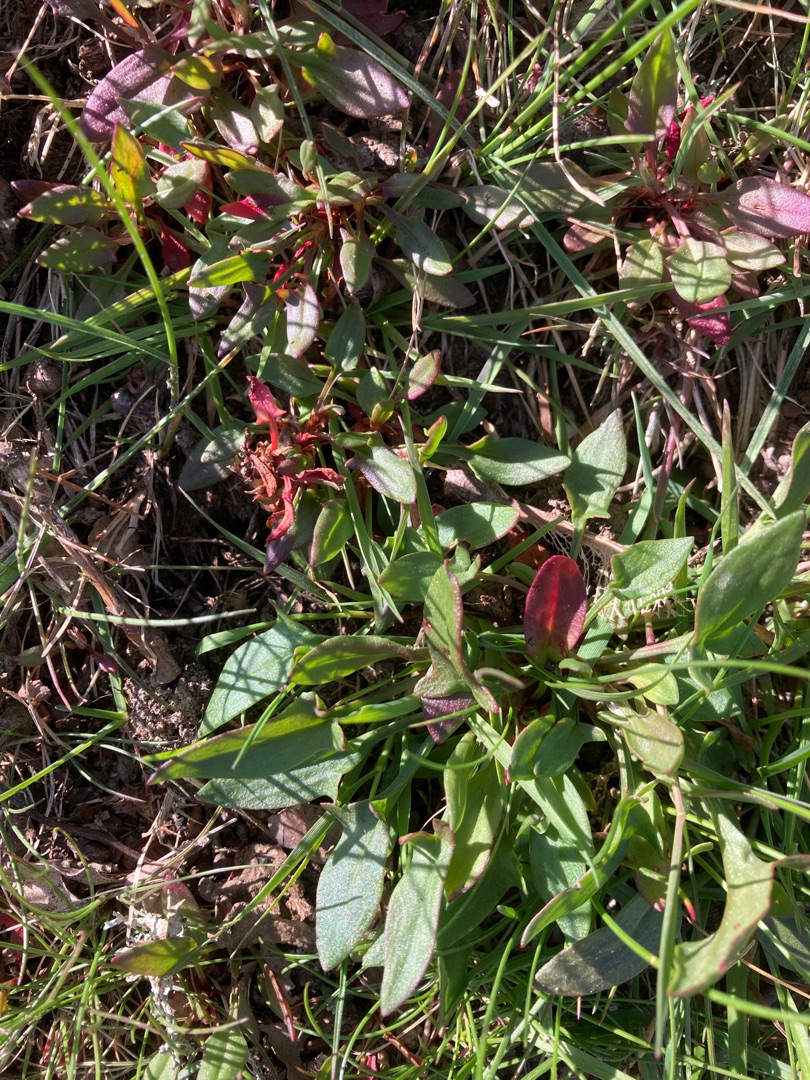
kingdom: Plantae
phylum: Tracheophyta
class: Magnoliopsida
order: Caryophyllales
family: Polygonaceae
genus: Rumex
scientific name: Rumex acetosella
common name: Rødknæ
